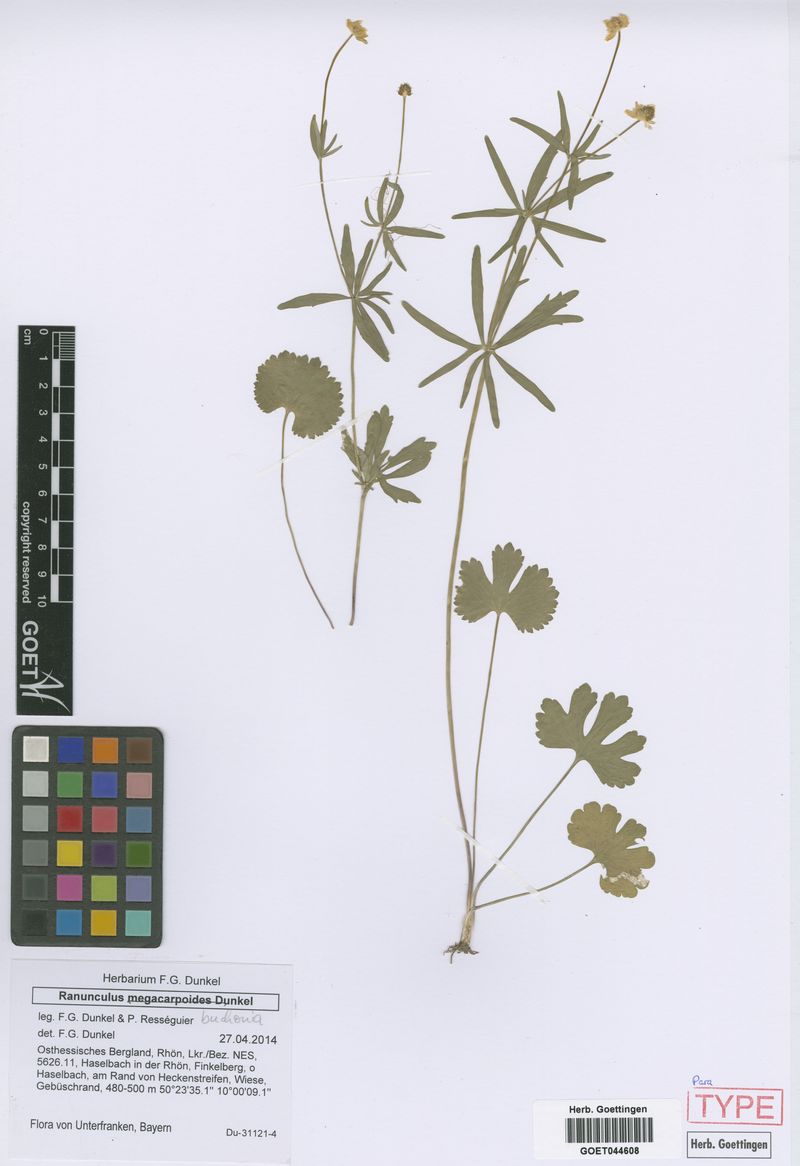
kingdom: Plantae
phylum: Tracheophyta
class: Magnoliopsida
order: Ranunculales
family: Ranunculaceae
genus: Ranunculus
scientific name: Ranunculus buchoniae
